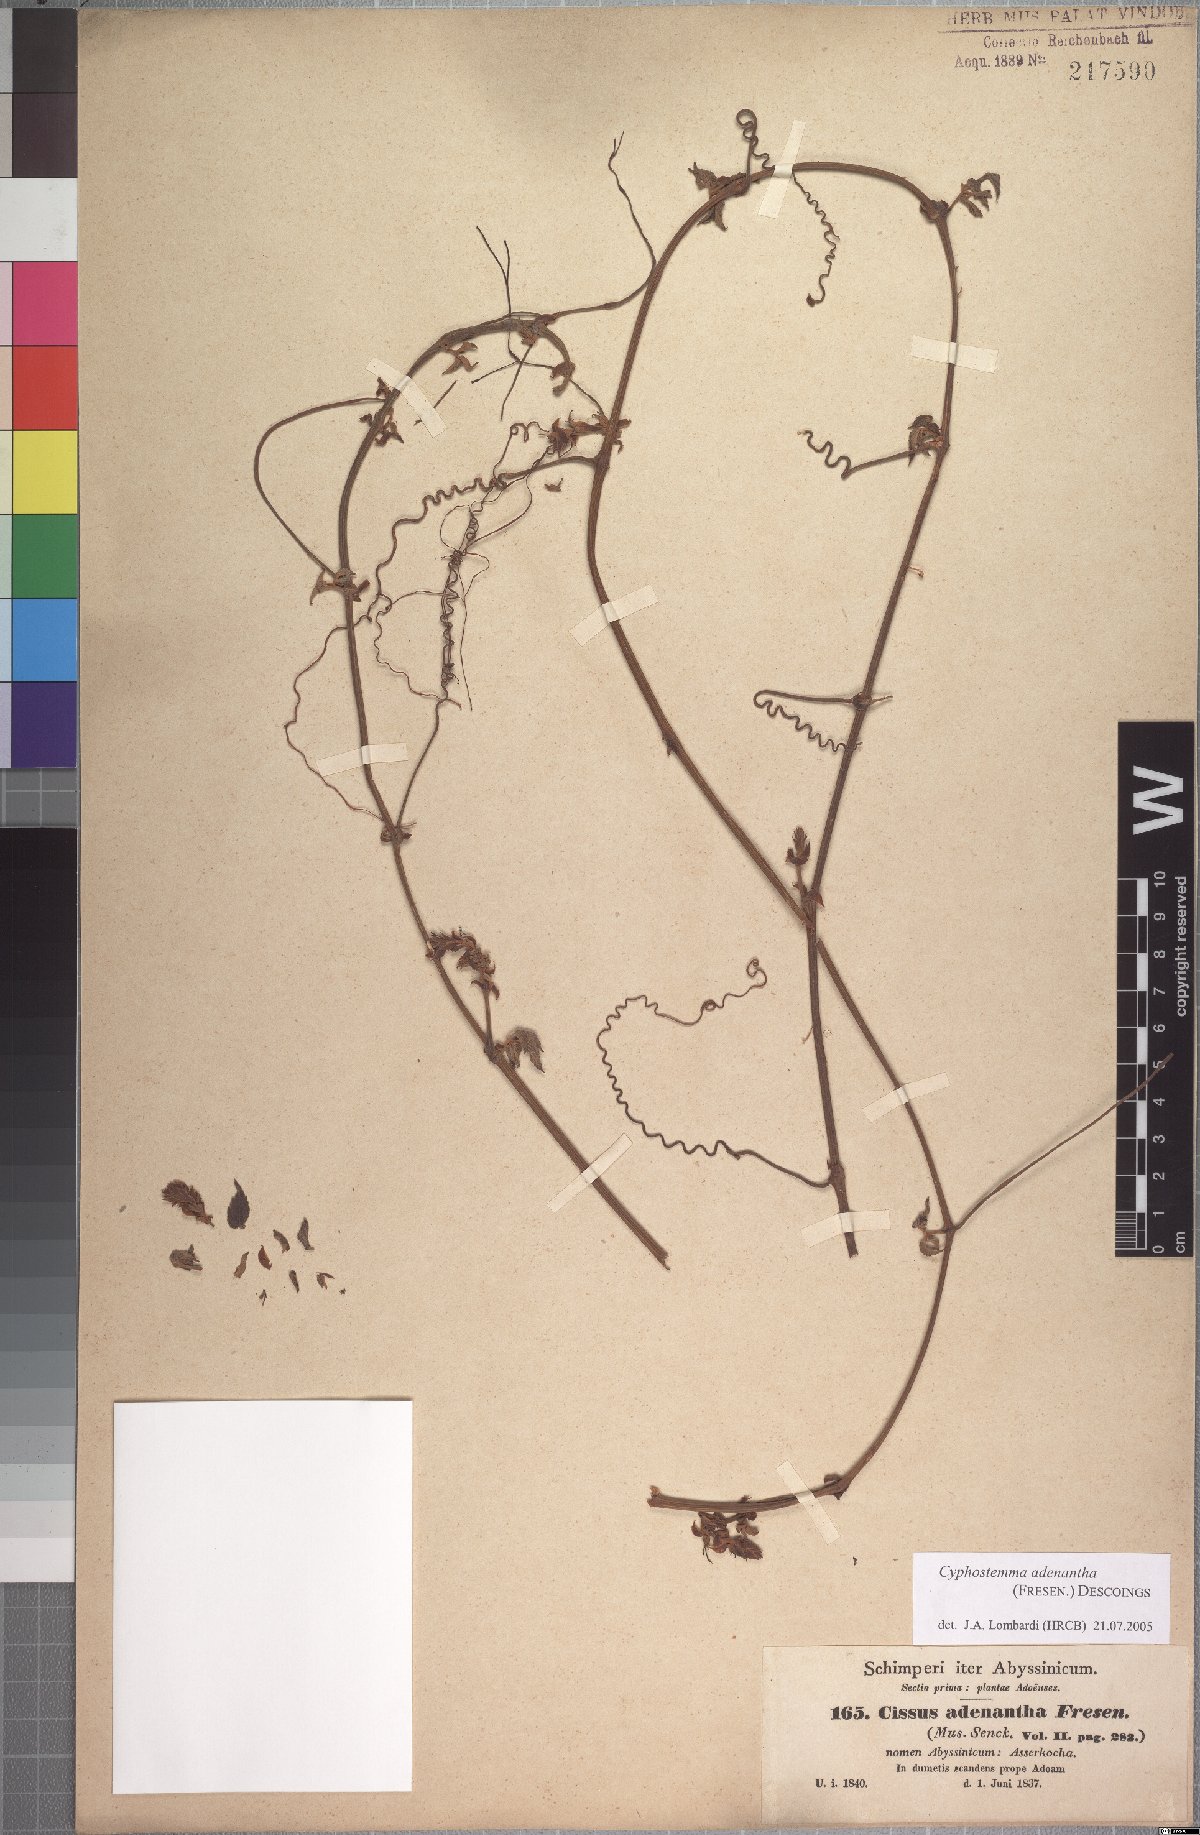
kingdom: Plantae
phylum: Tracheophyta
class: Magnoliopsida
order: Vitales
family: Vitaceae
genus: Cyphostemma
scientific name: Cyphostemma adenanthum
